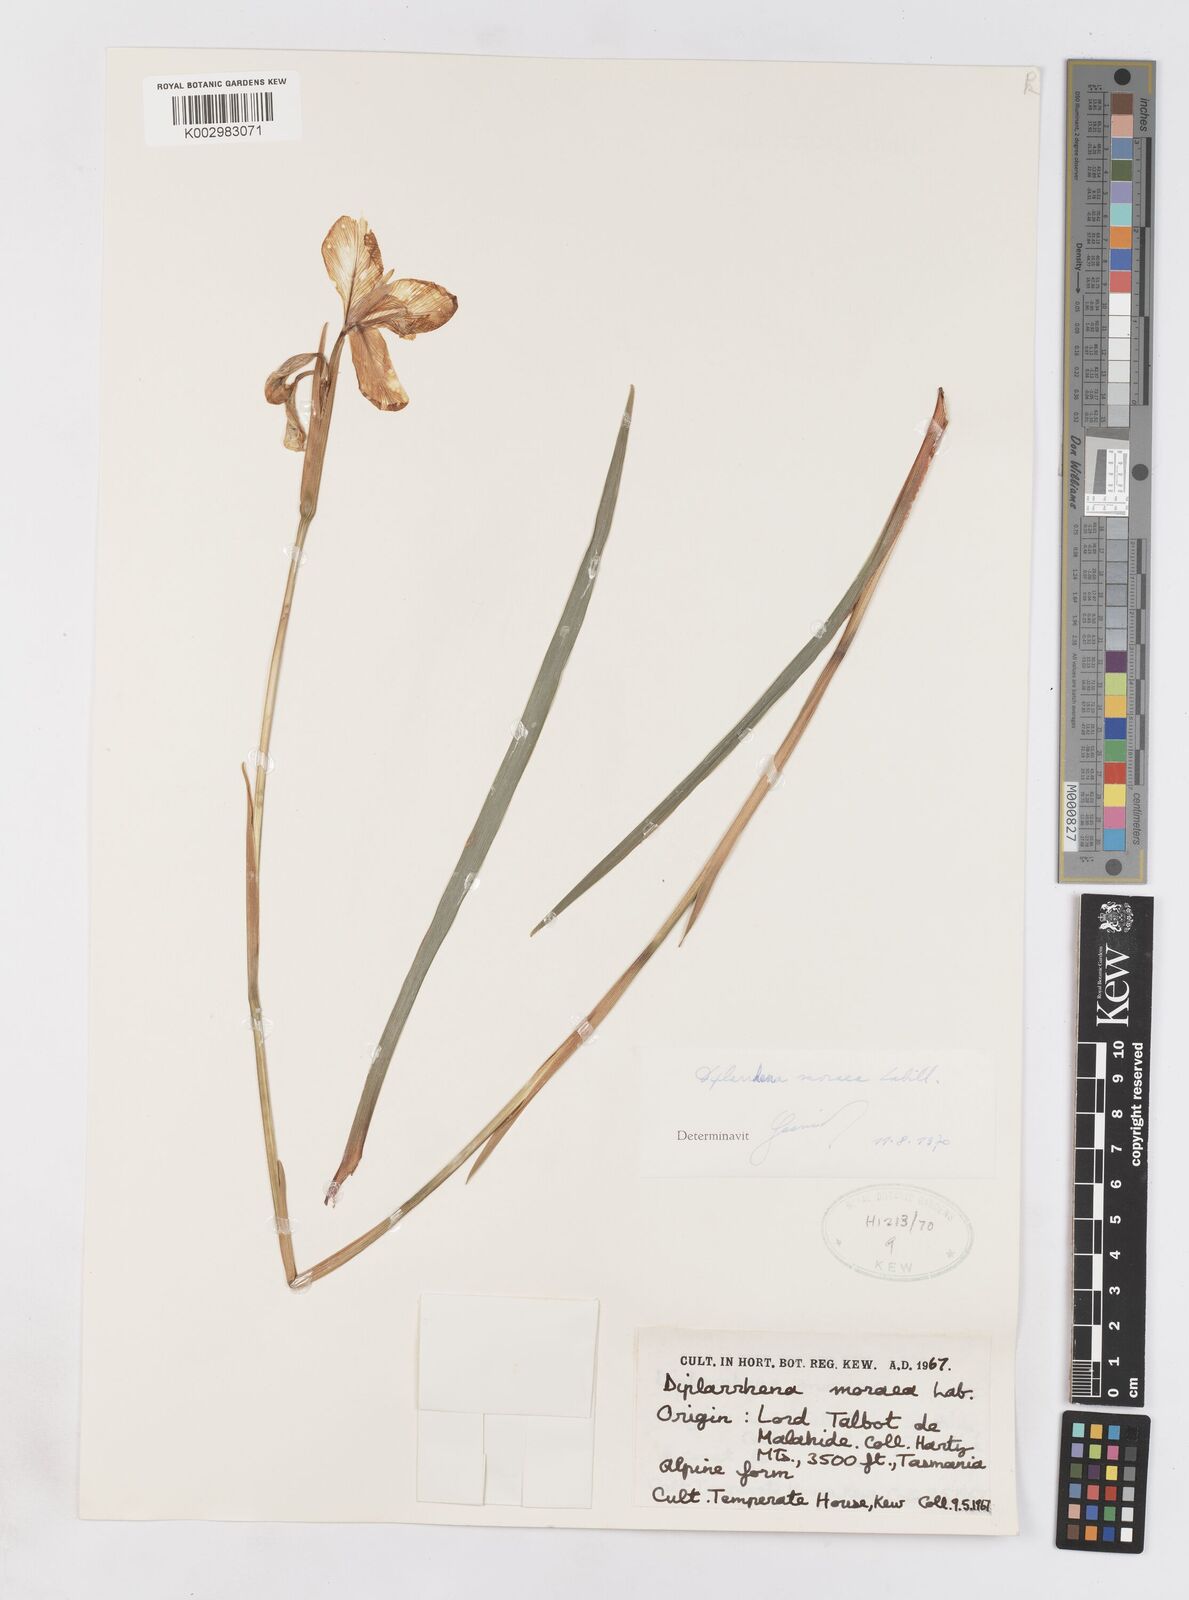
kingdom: Plantae
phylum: Tracheophyta
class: Liliopsida
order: Asparagales
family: Iridaceae
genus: Diplarrena
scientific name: Diplarrena moraea
